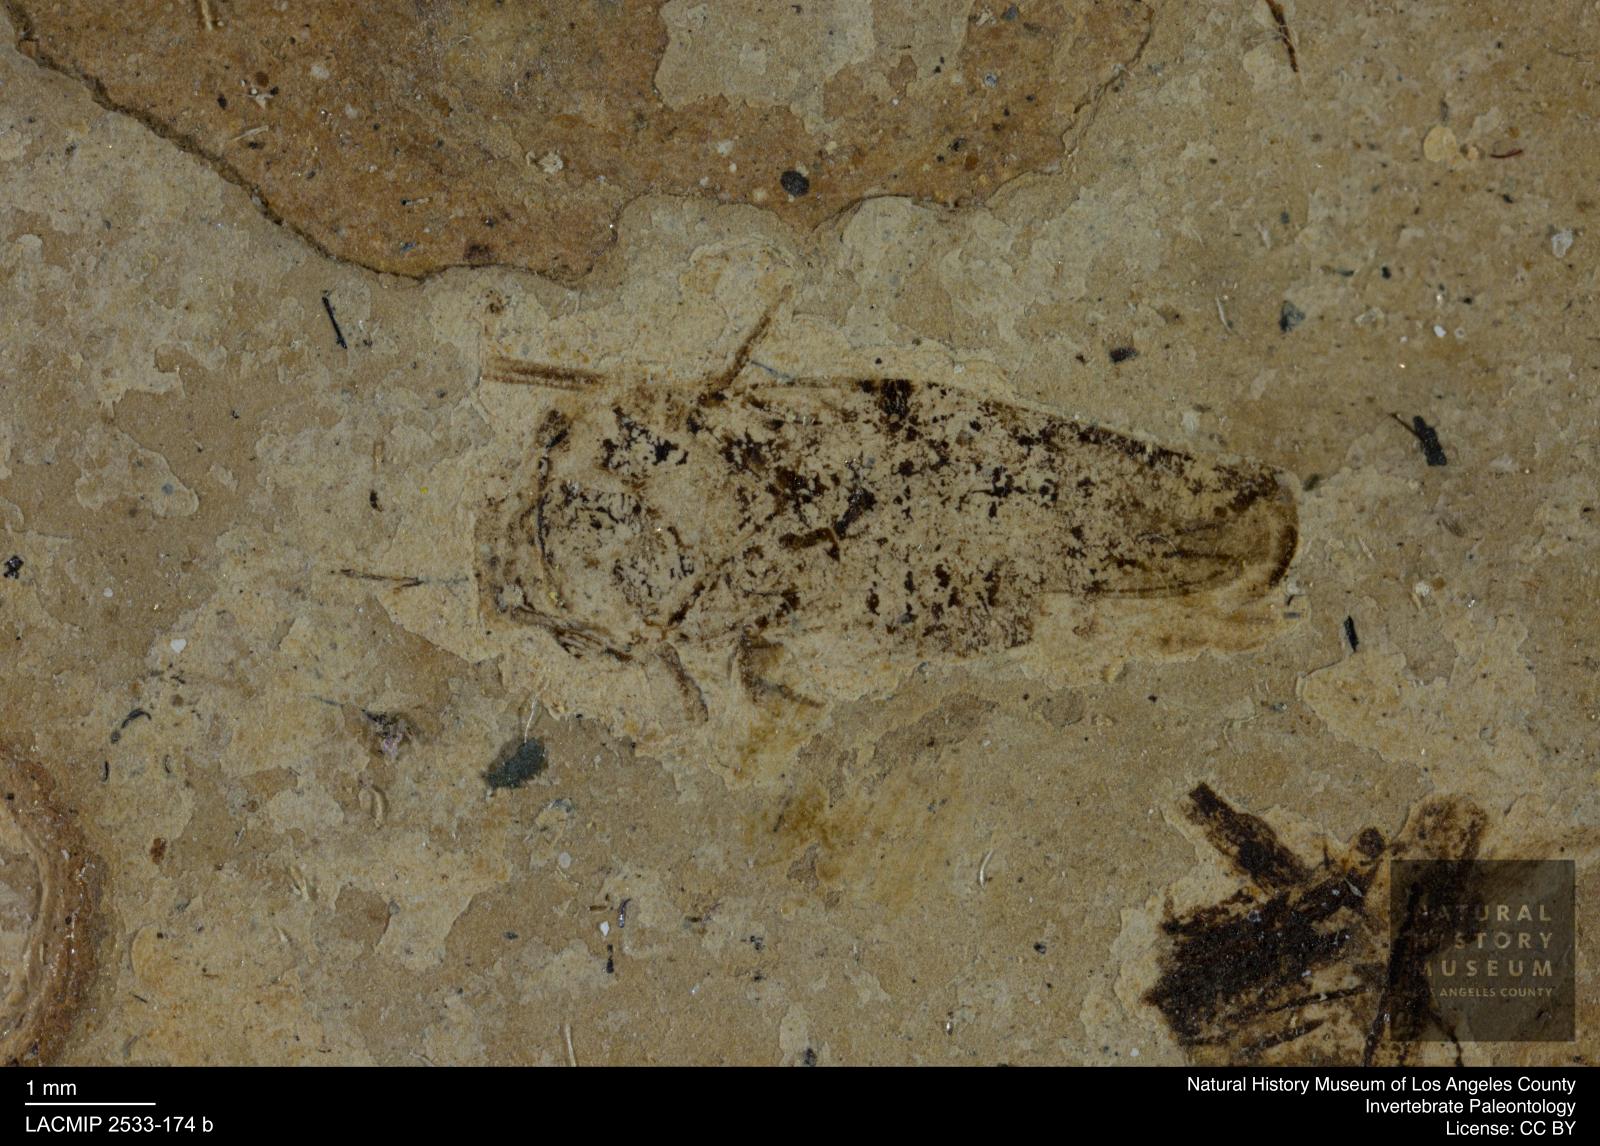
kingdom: Animalia
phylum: Arthropoda
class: Insecta
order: Hemiptera
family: Cicadellidae
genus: Gyponites
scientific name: Gyponites pronota
